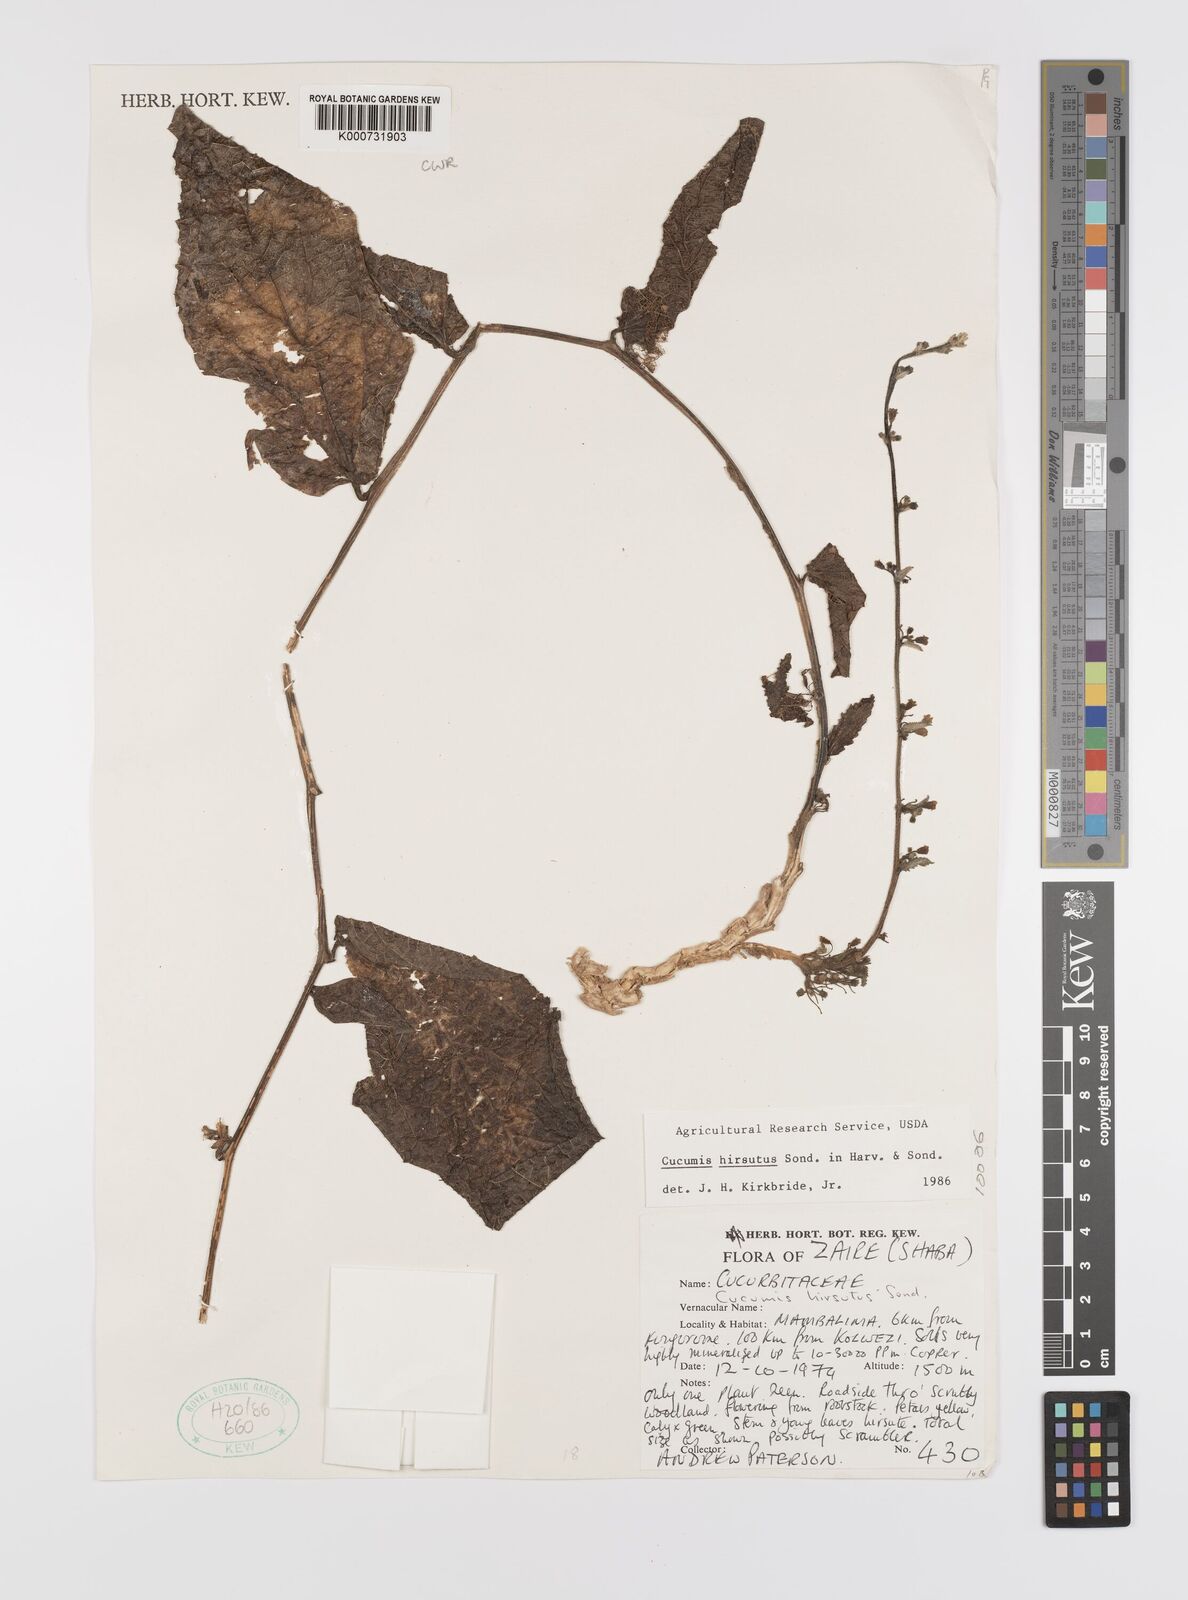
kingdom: Plantae
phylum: Tracheophyta
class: Magnoliopsida
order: Cucurbitales
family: Cucurbitaceae
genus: Cucumis
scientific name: Cucumis hirsutus
